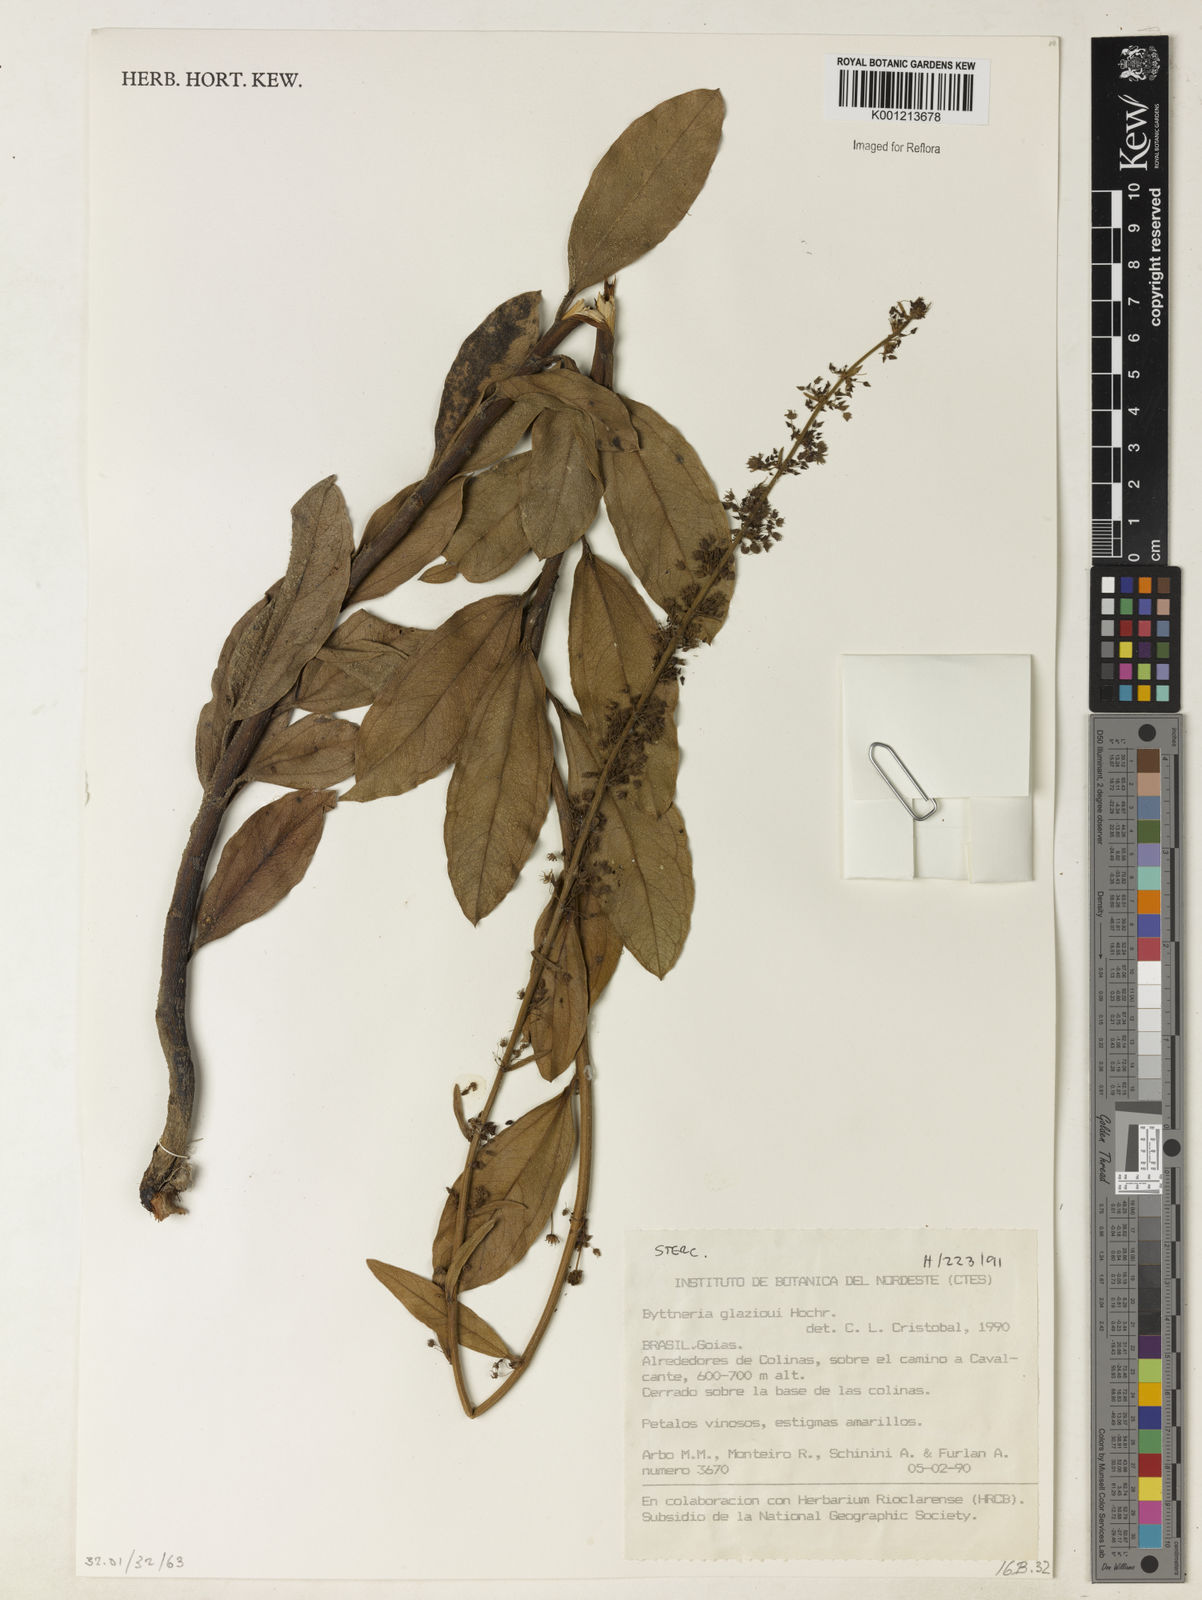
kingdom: Plantae
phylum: Tracheophyta
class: Magnoliopsida
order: Malvales
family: Malvaceae
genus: Byttneria
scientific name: Byttneria glazioui
